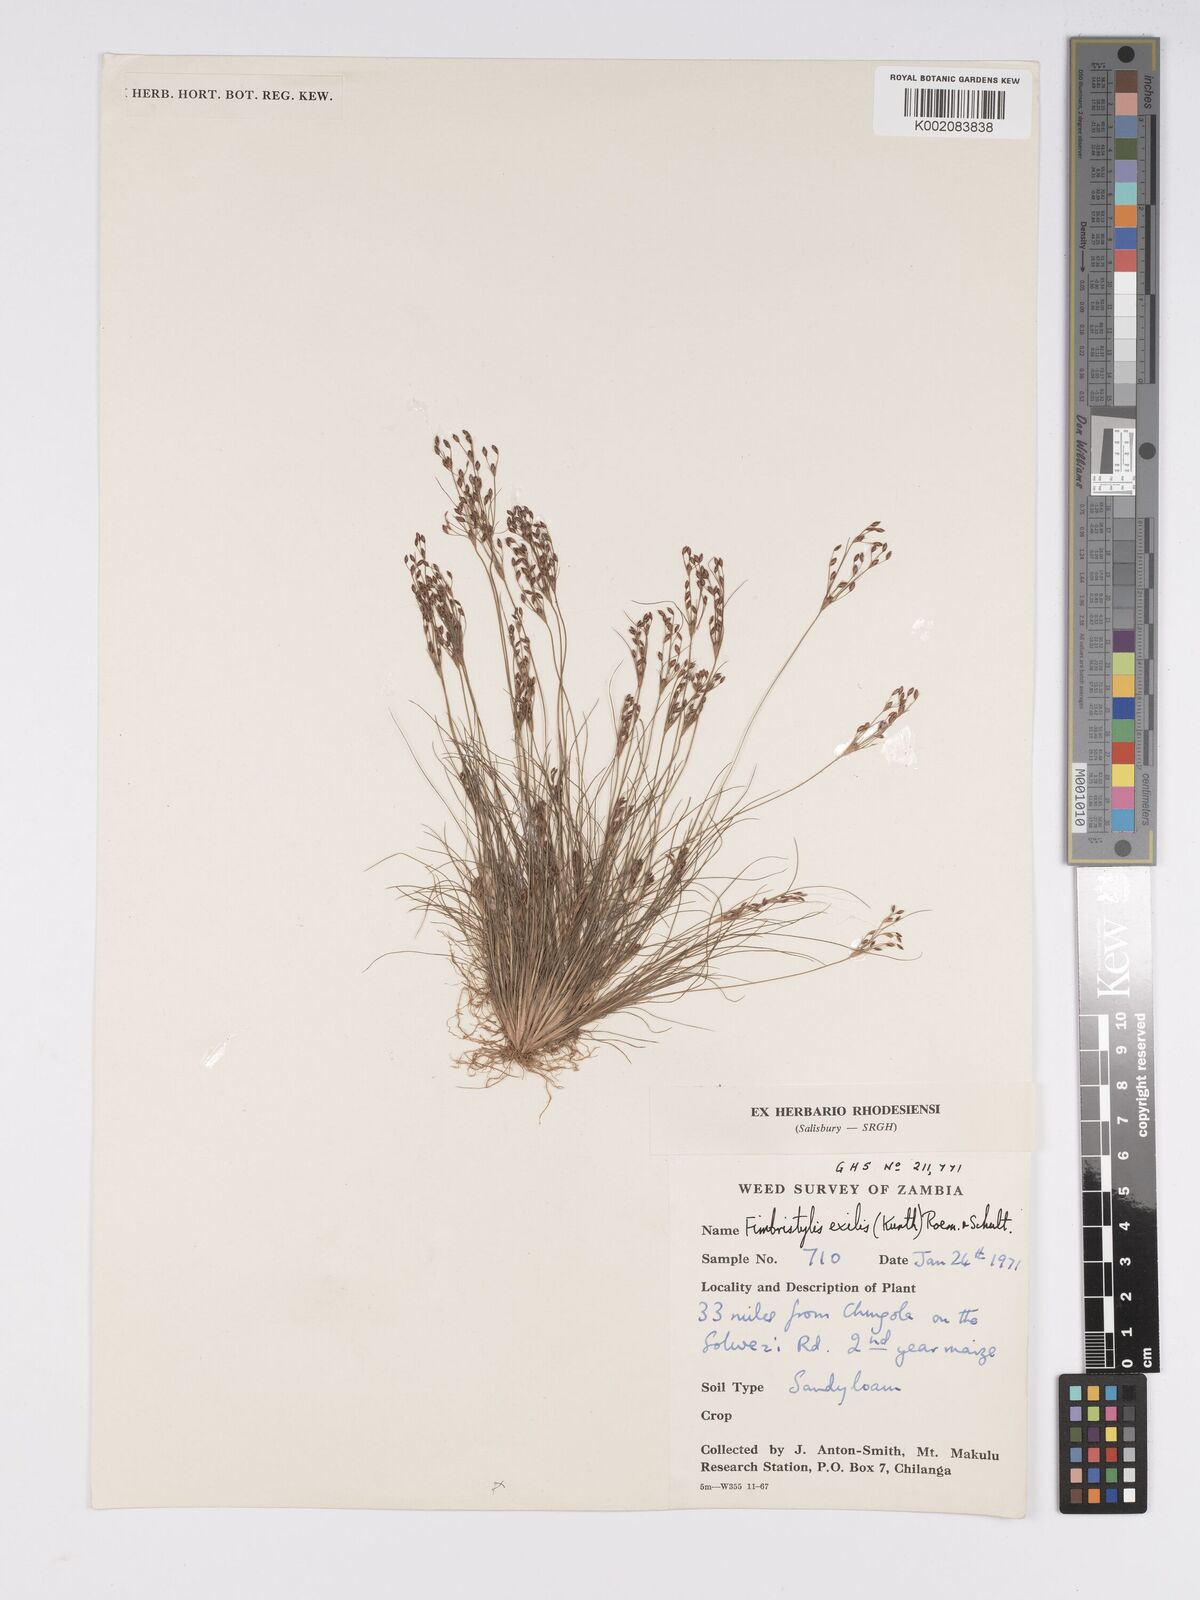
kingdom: Plantae
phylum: Tracheophyta
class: Liliopsida
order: Poales
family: Cyperaceae
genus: Bulbostylis
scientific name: Bulbostylis hispidula
